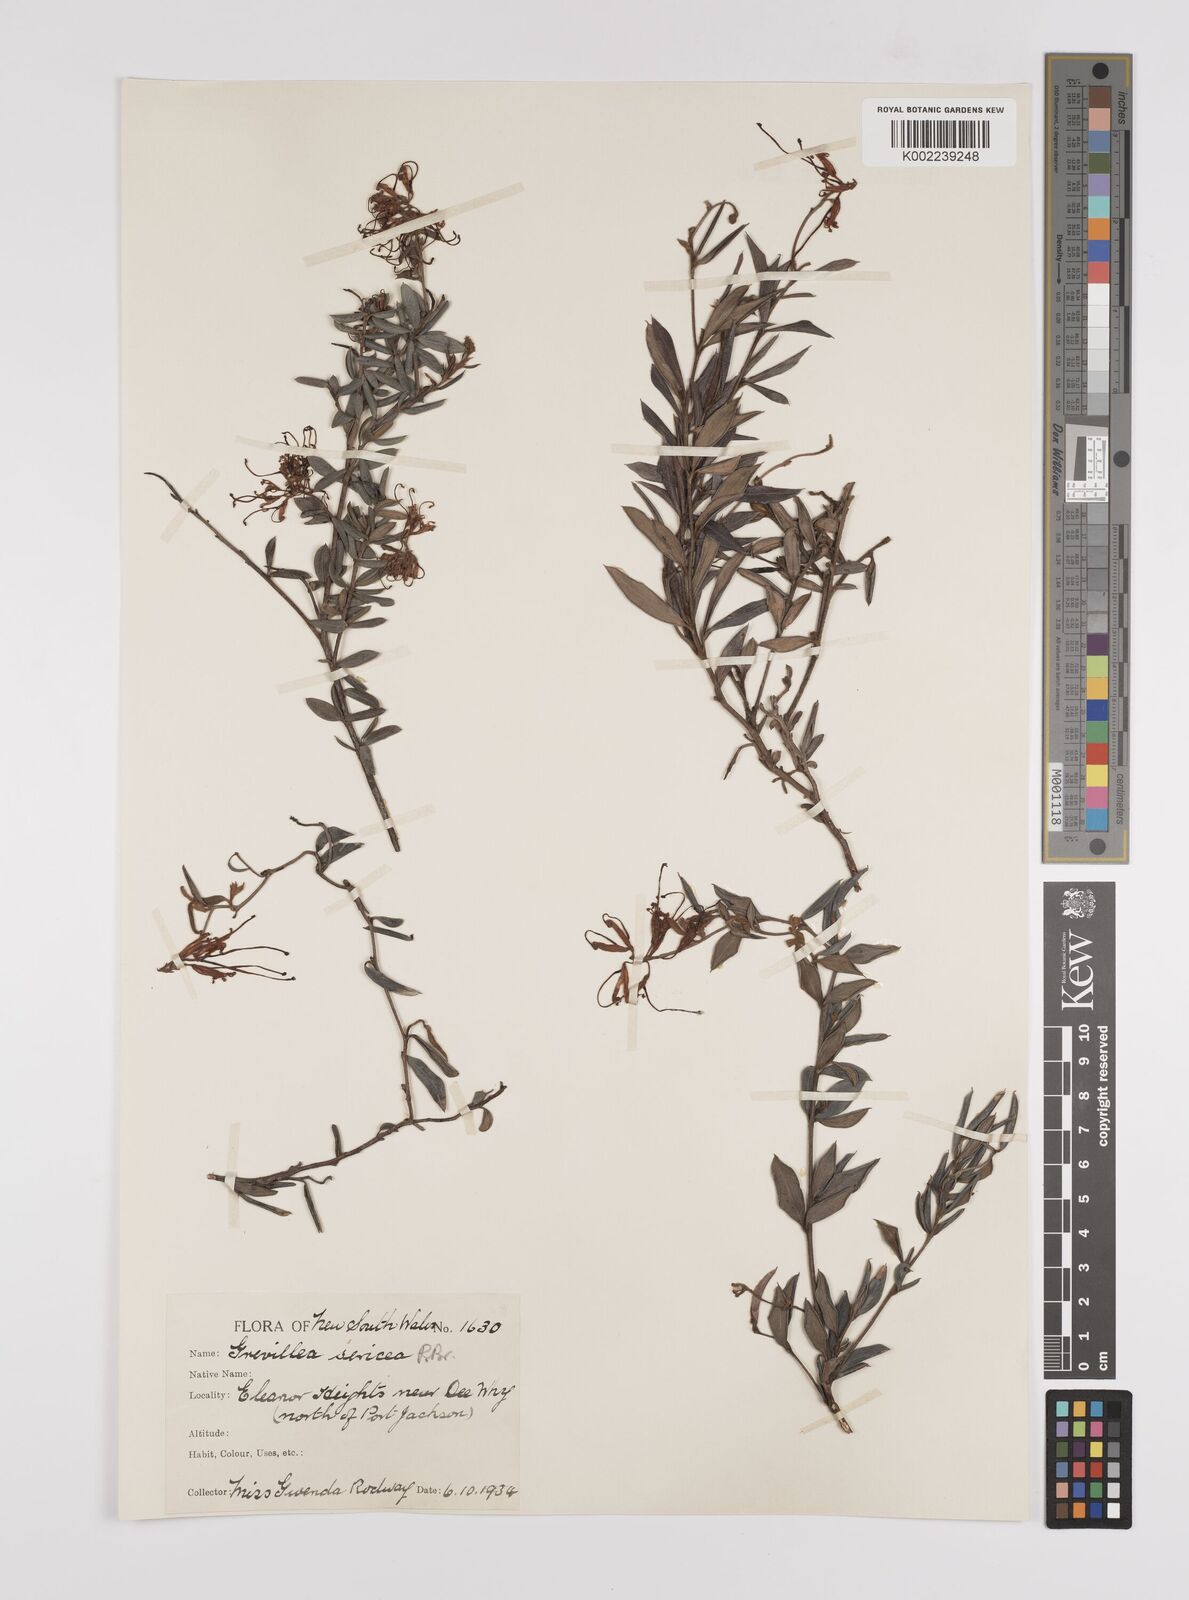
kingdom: Plantae
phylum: Tracheophyta
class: Magnoliopsida
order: Proteales
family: Proteaceae
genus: Grevillea
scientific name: Grevillea sericea
